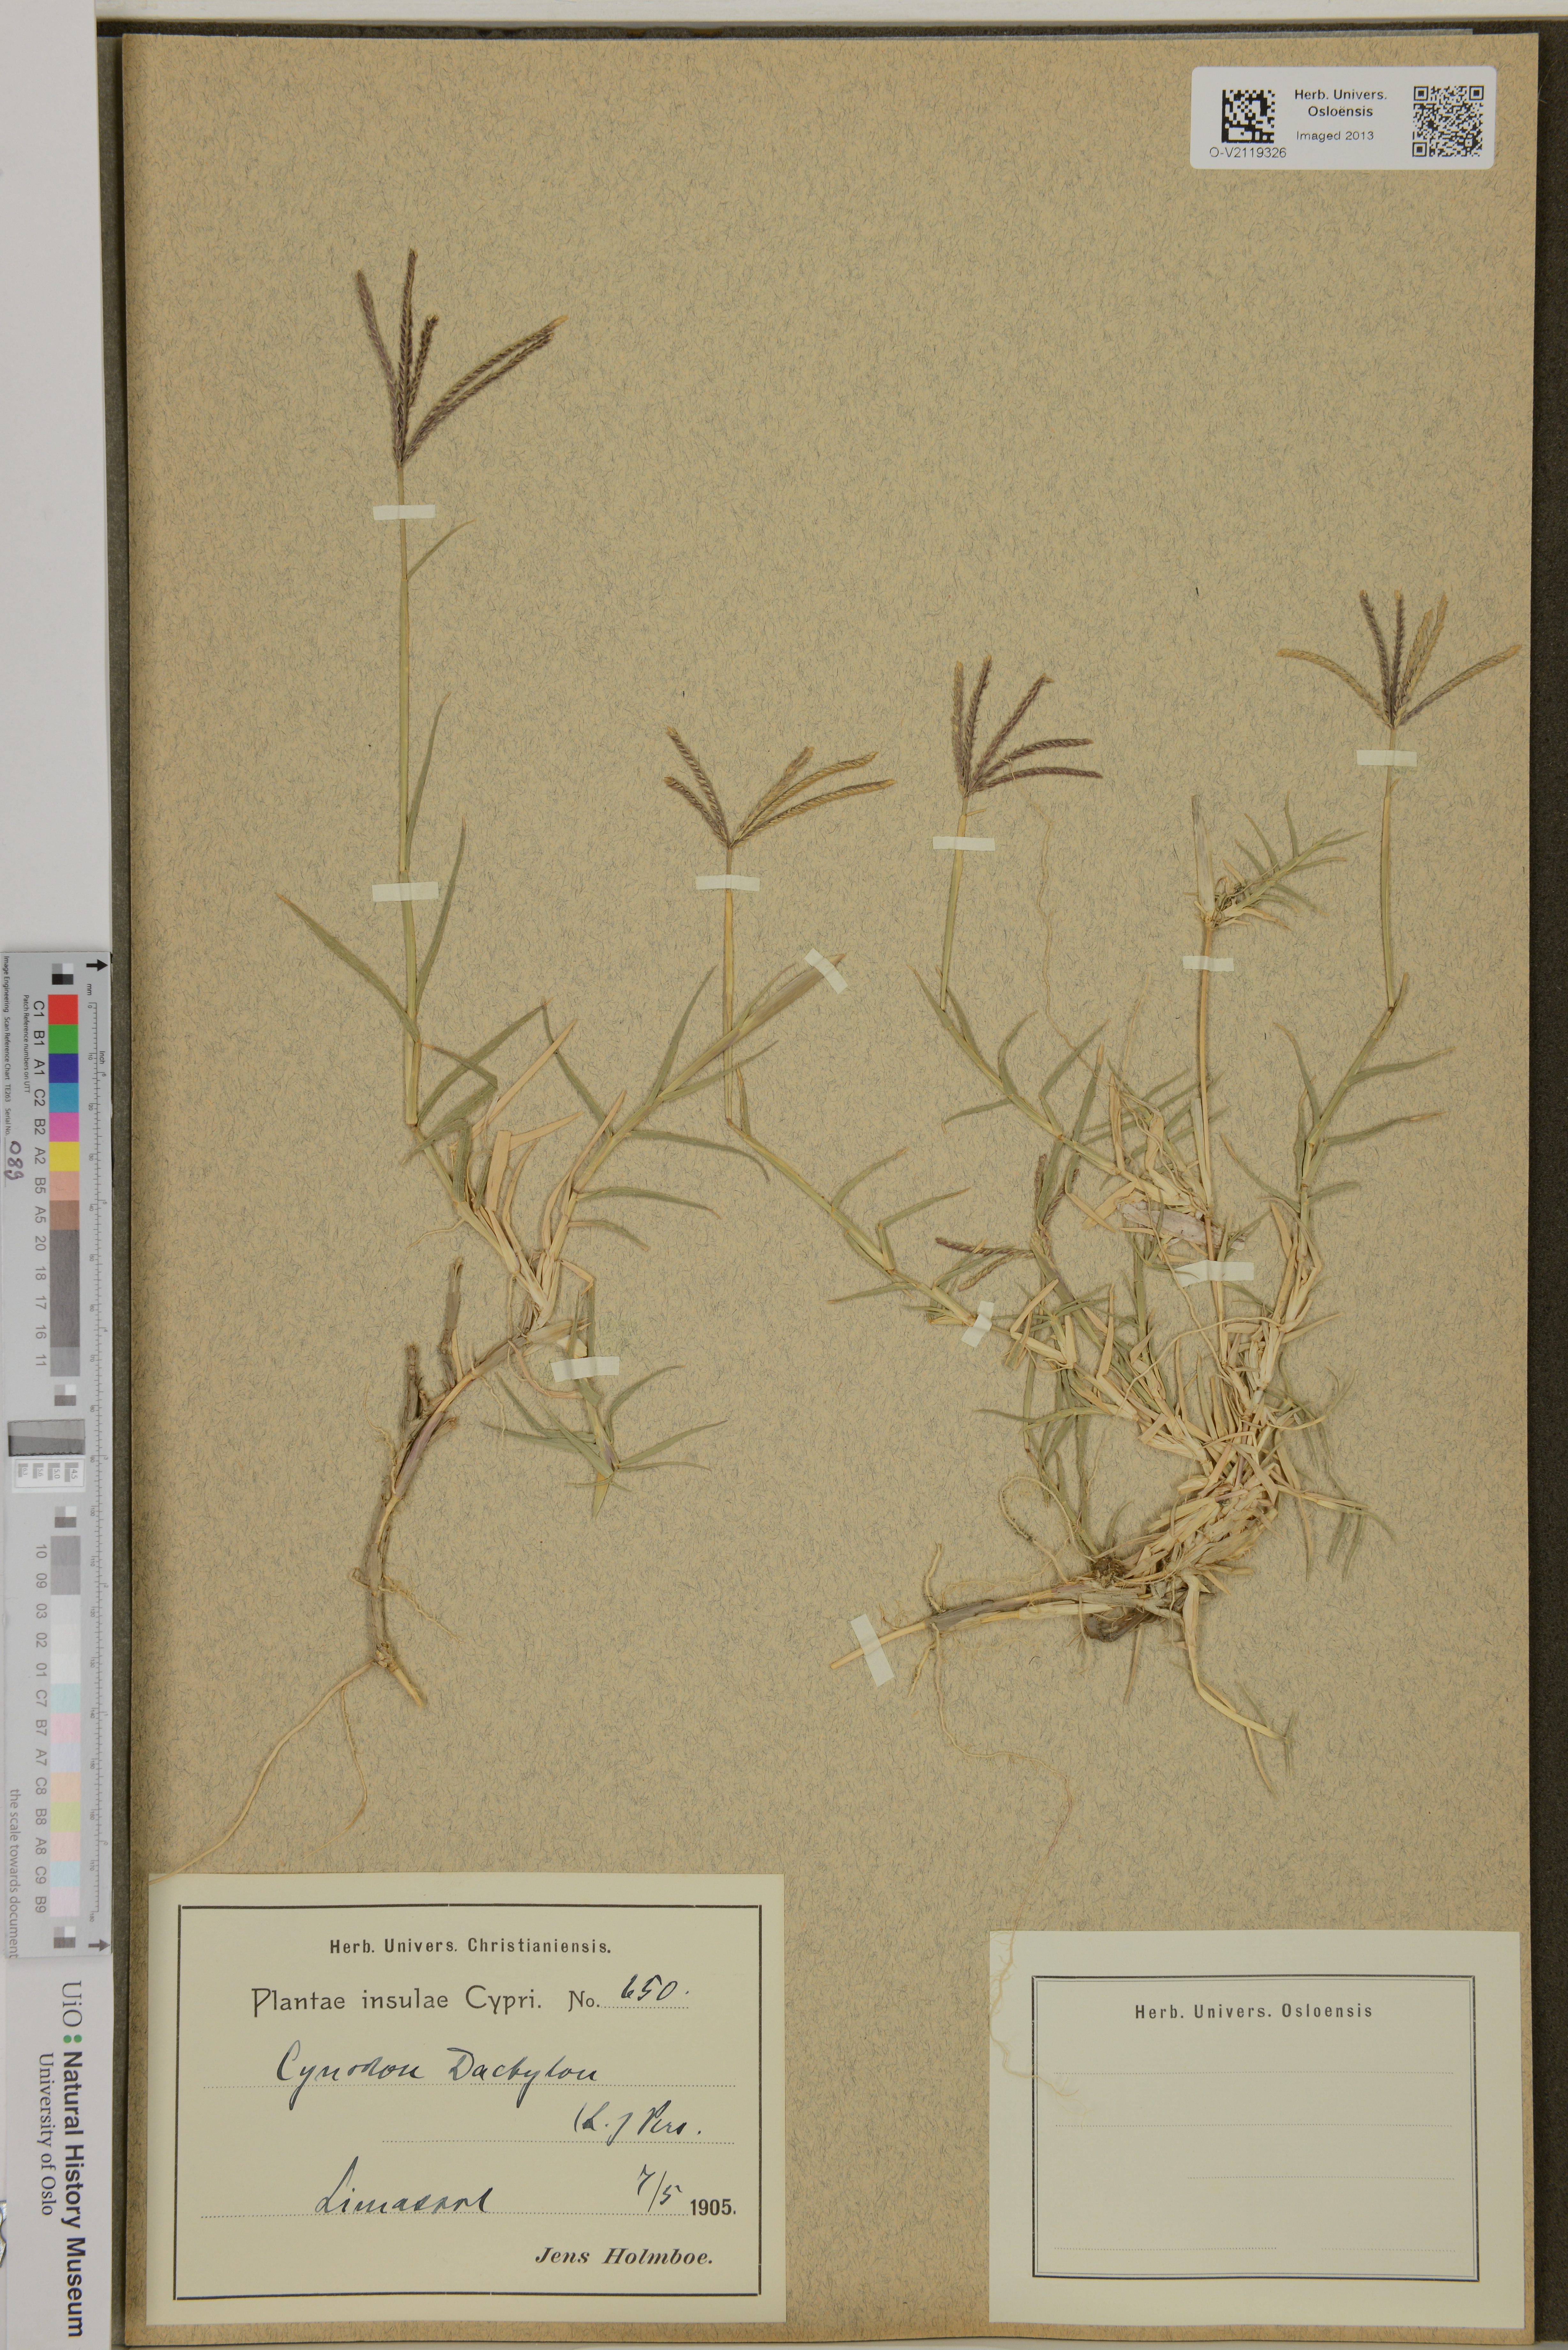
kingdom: Plantae
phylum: Tracheophyta
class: Liliopsida
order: Poales
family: Poaceae
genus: Cynodon
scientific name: Cynodon dactylon
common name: Bermuda grass
